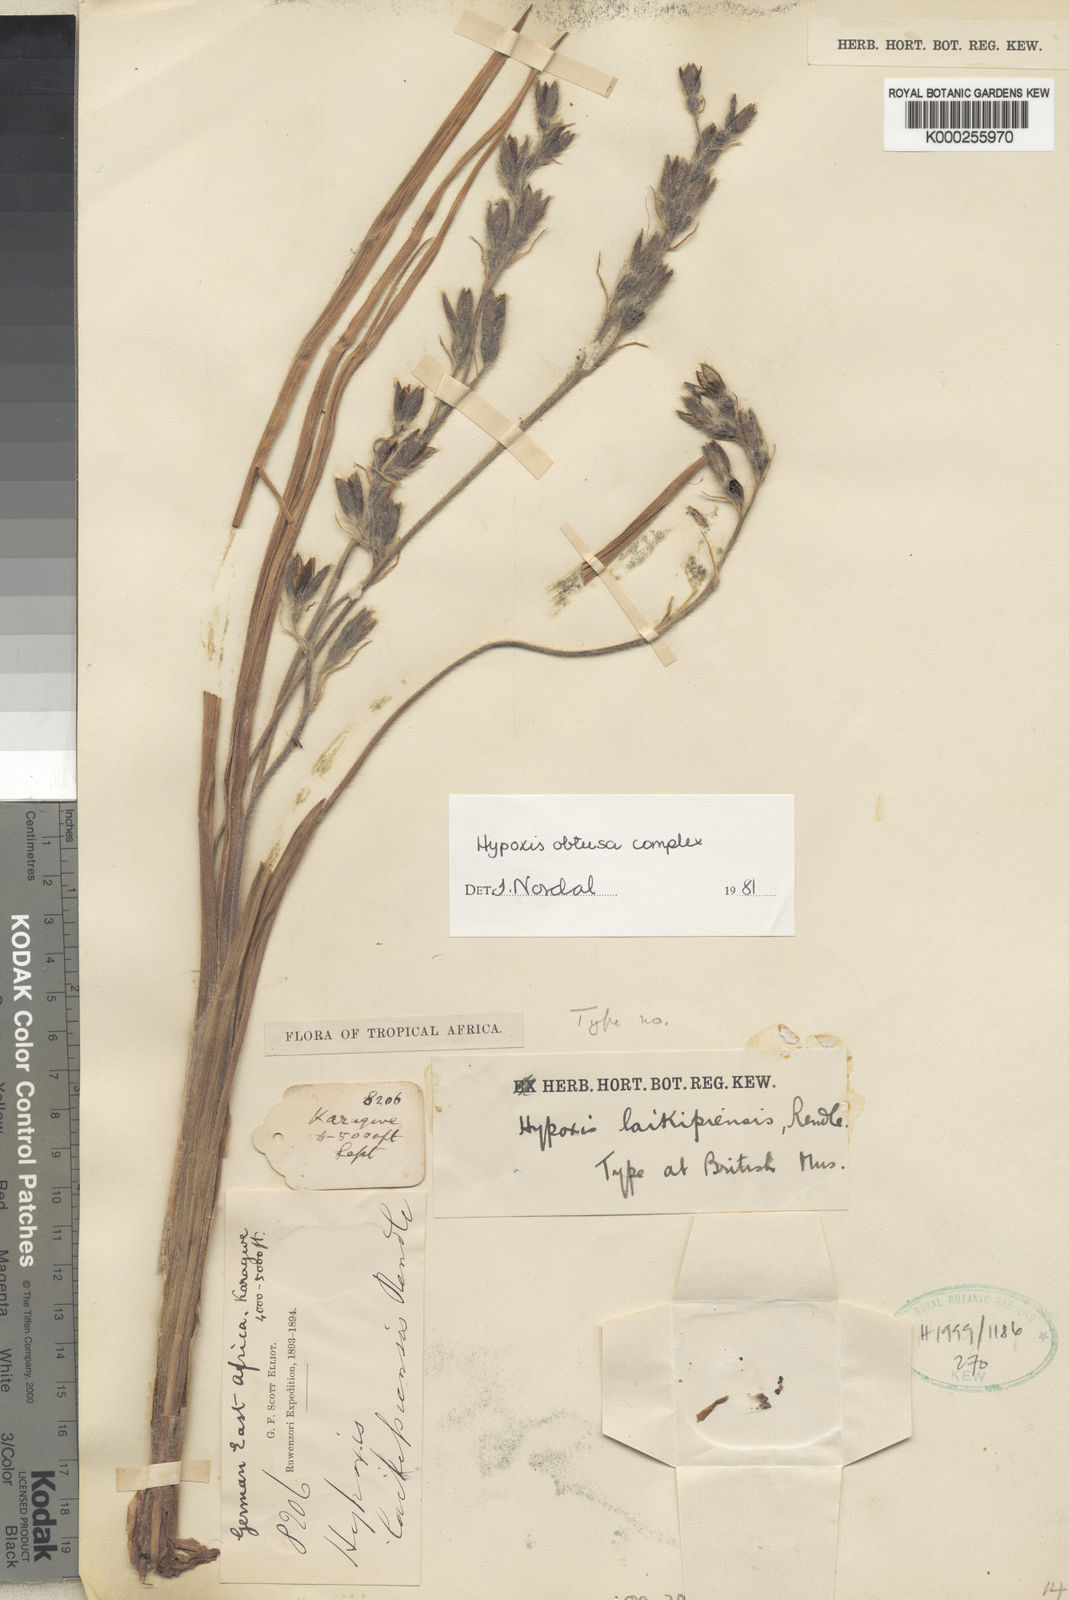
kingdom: Plantae
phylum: Tracheophyta
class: Liliopsida
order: Asparagales
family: Hypoxidaceae
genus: Hypoxis
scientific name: Hypoxis rigidula
